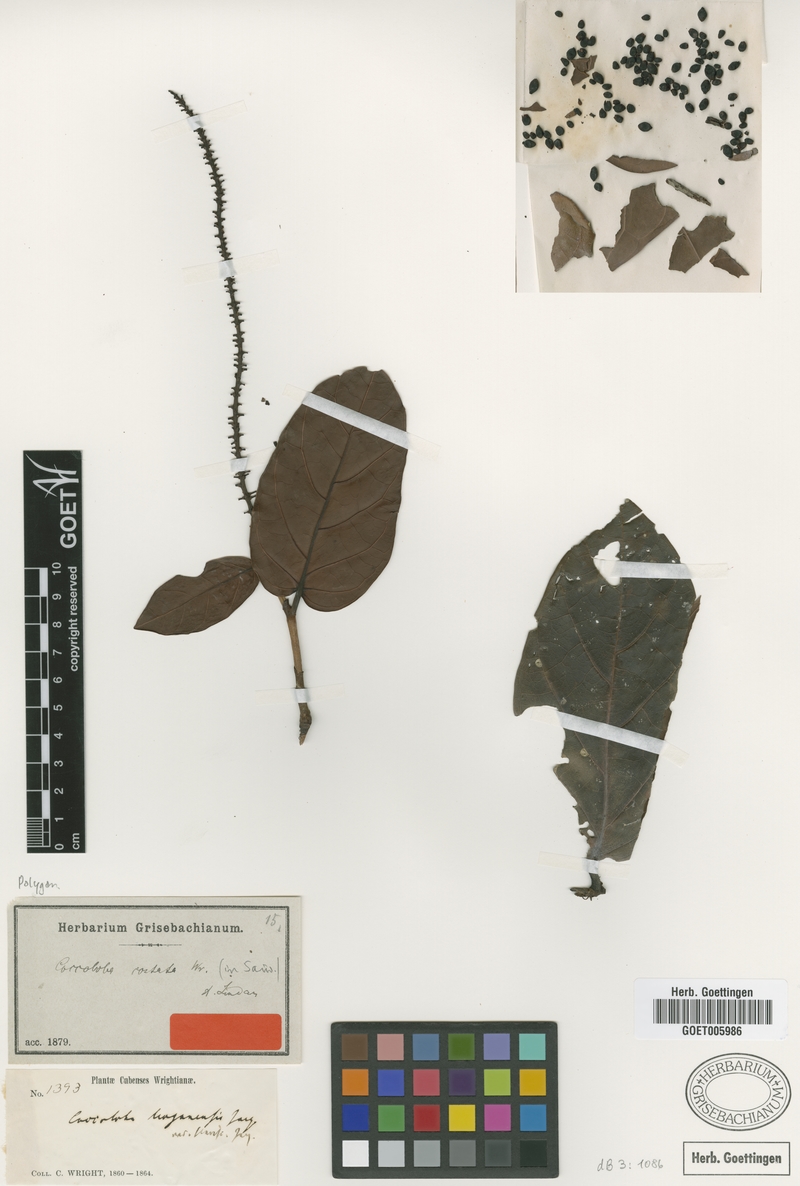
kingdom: Plantae
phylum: Tracheophyta
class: Magnoliopsida
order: Caryophyllales
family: Polygonaceae
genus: Coccoloba
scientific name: Coccoloba costata
